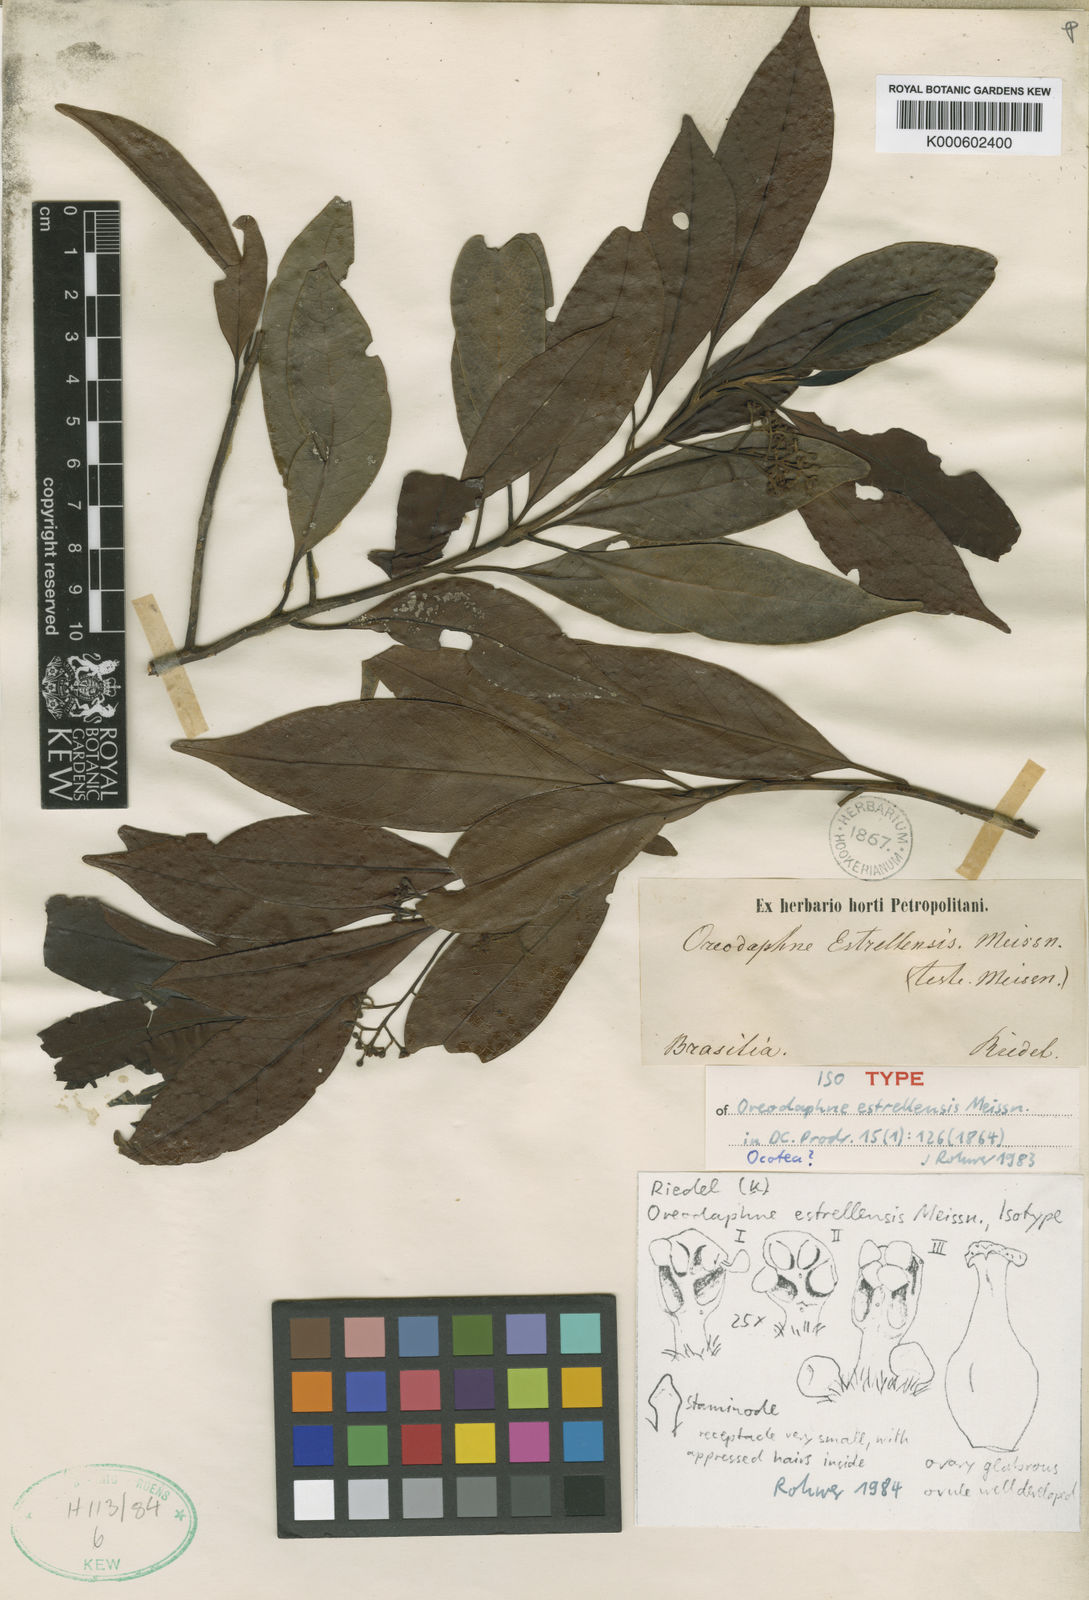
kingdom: Plantae
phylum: Tracheophyta
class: Magnoliopsida
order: Laurales
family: Lauraceae
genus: Ocotea
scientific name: Ocotea estrellensis
